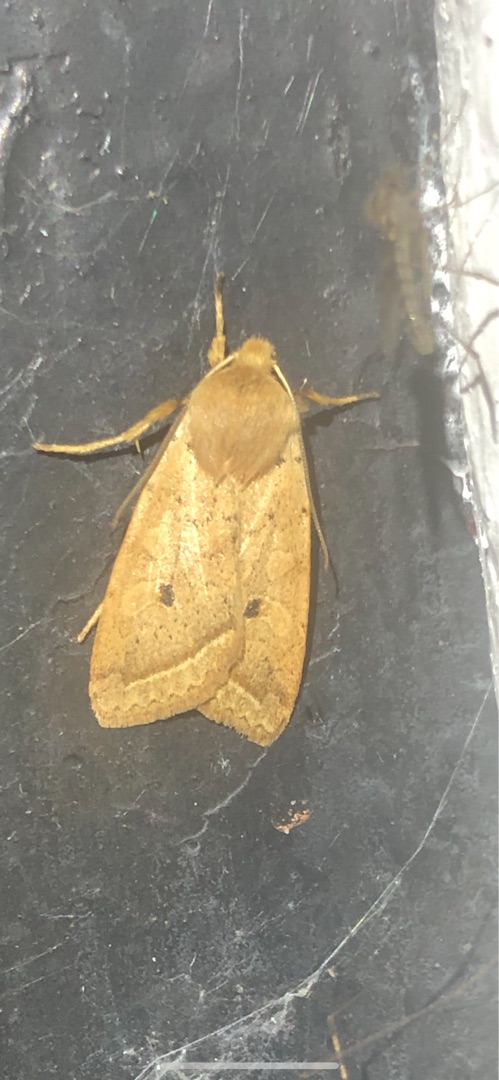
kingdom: Animalia
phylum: Arthropoda
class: Insecta
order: Lepidoptera
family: Noctuidae
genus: Agrochola
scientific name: Agrochola Leptologia macilenta
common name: Mager jordfarveugle
